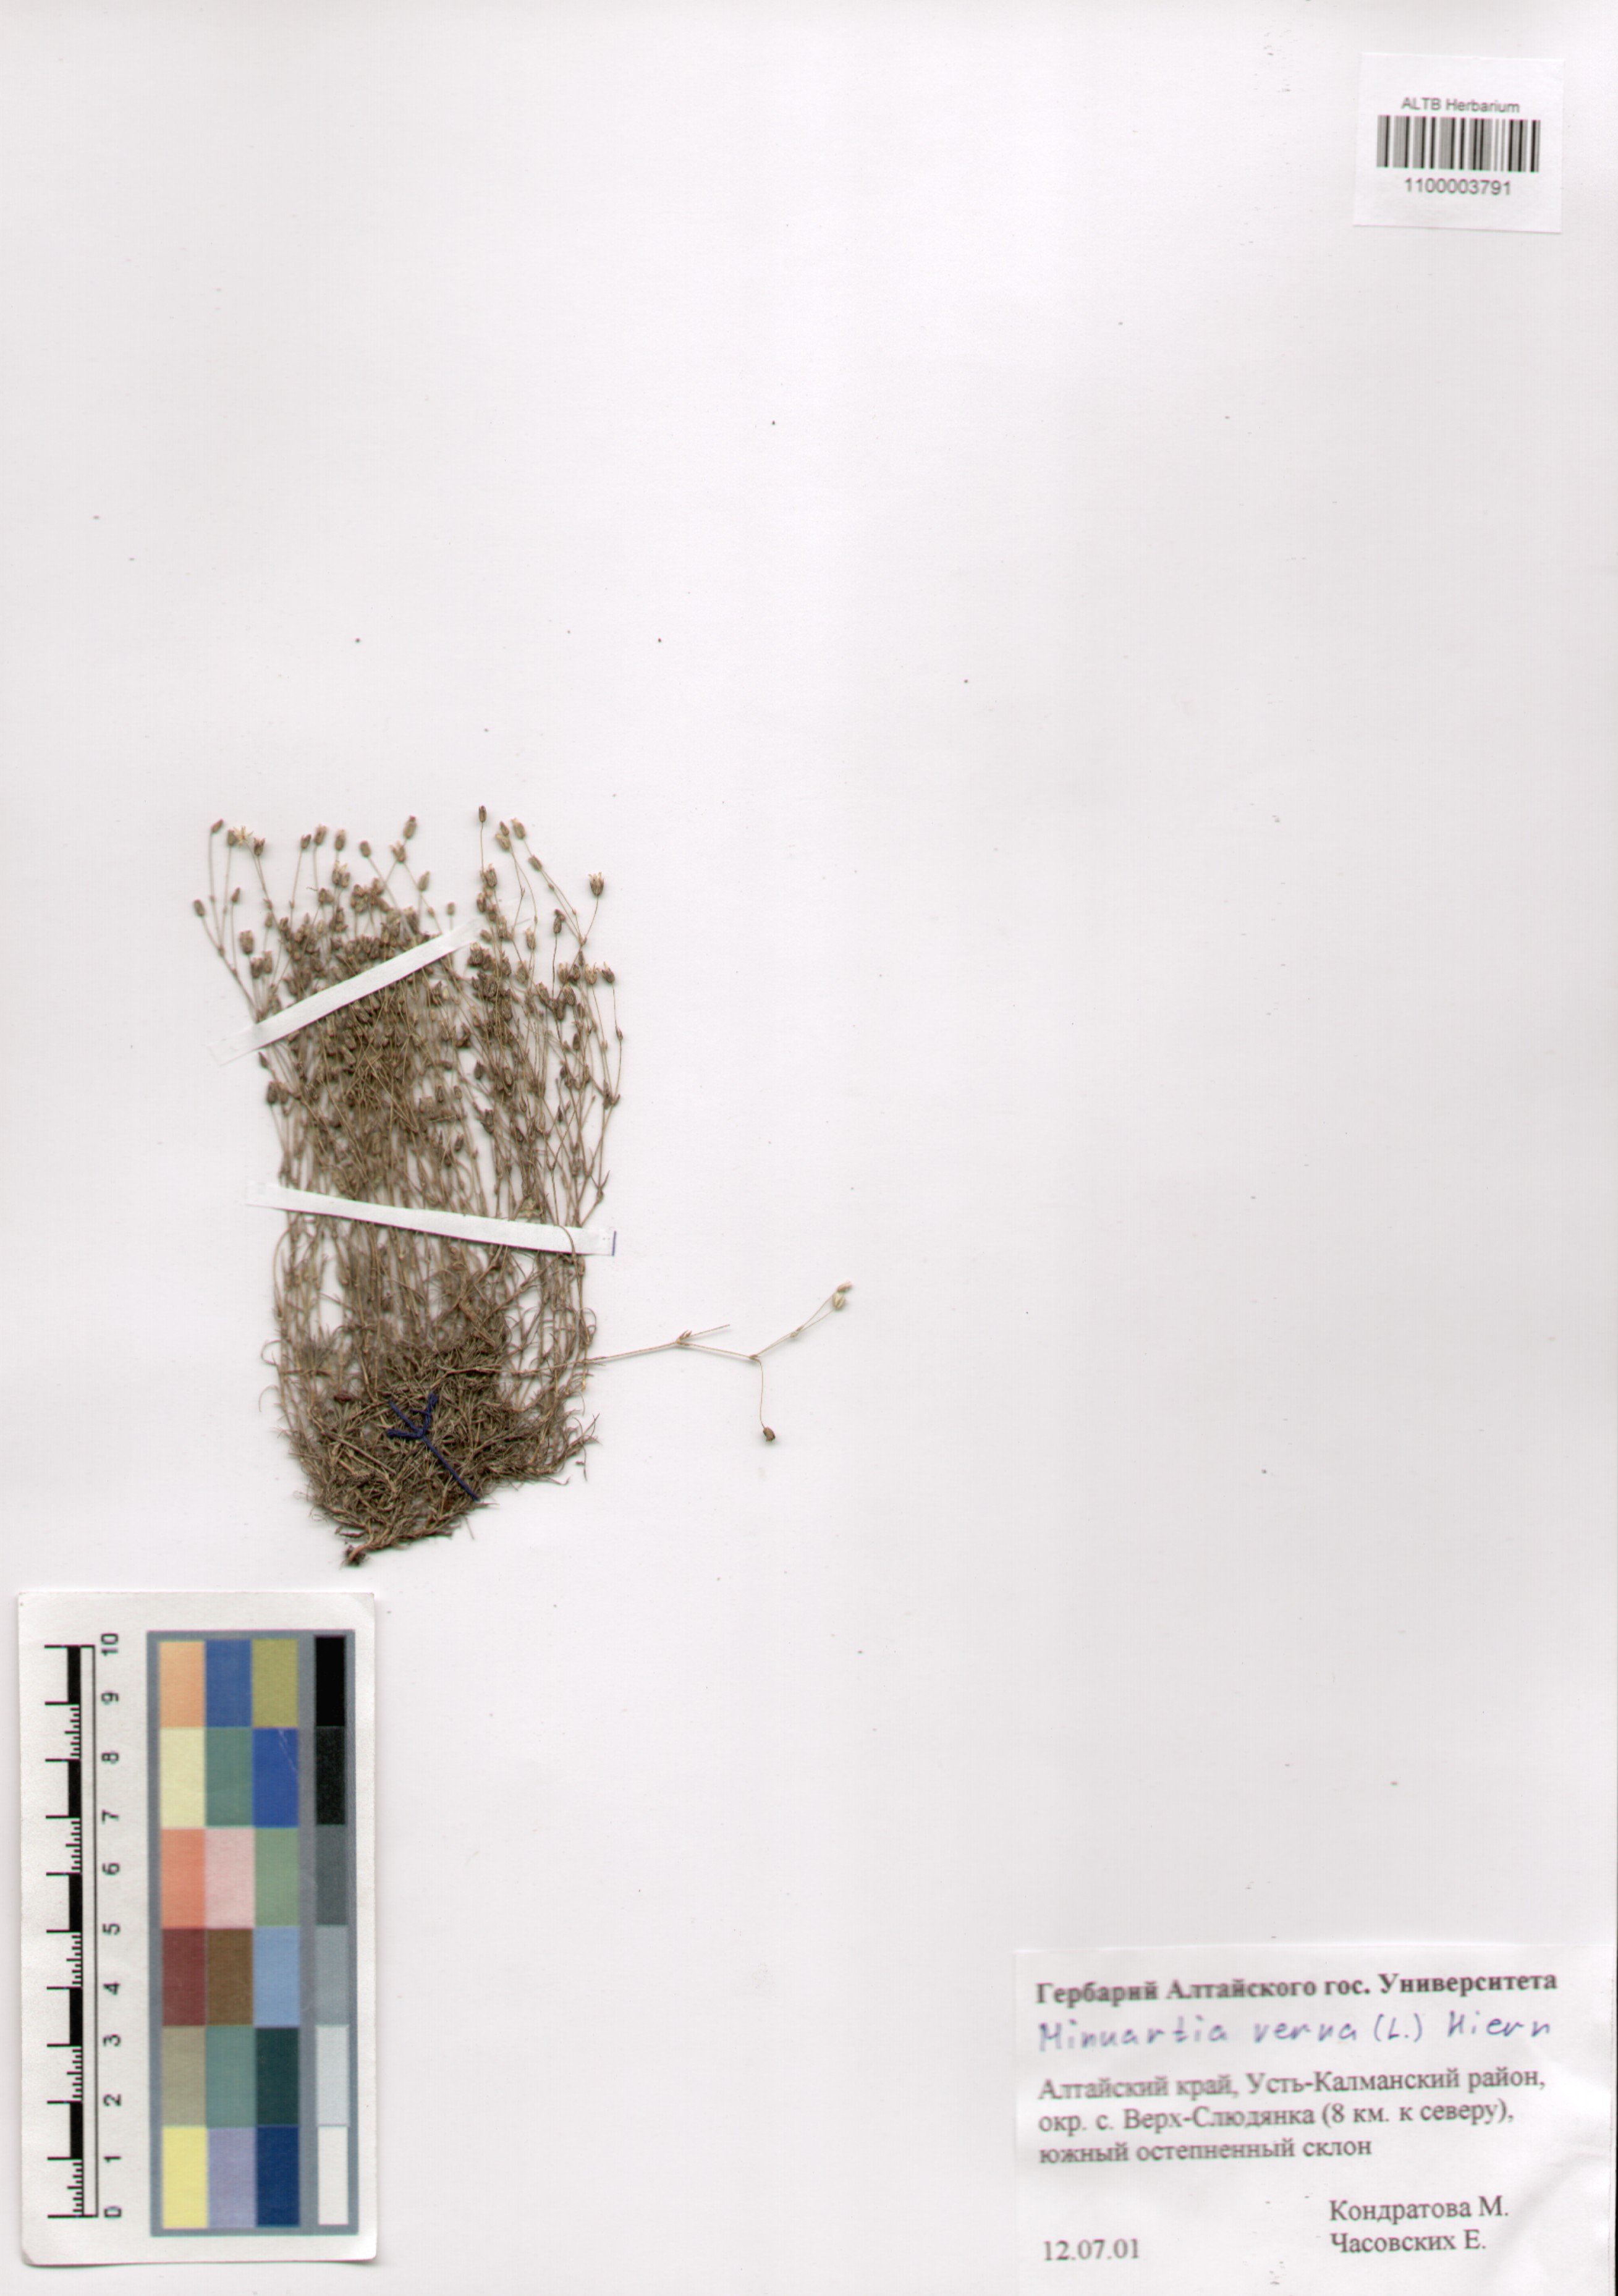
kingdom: Plantae
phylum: Tracheophyta
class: Magnoliopsida
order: Caryophyllales
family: Caryophyllaceae
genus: Sabulina
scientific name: Sabulina verna
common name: Spring sandwort
